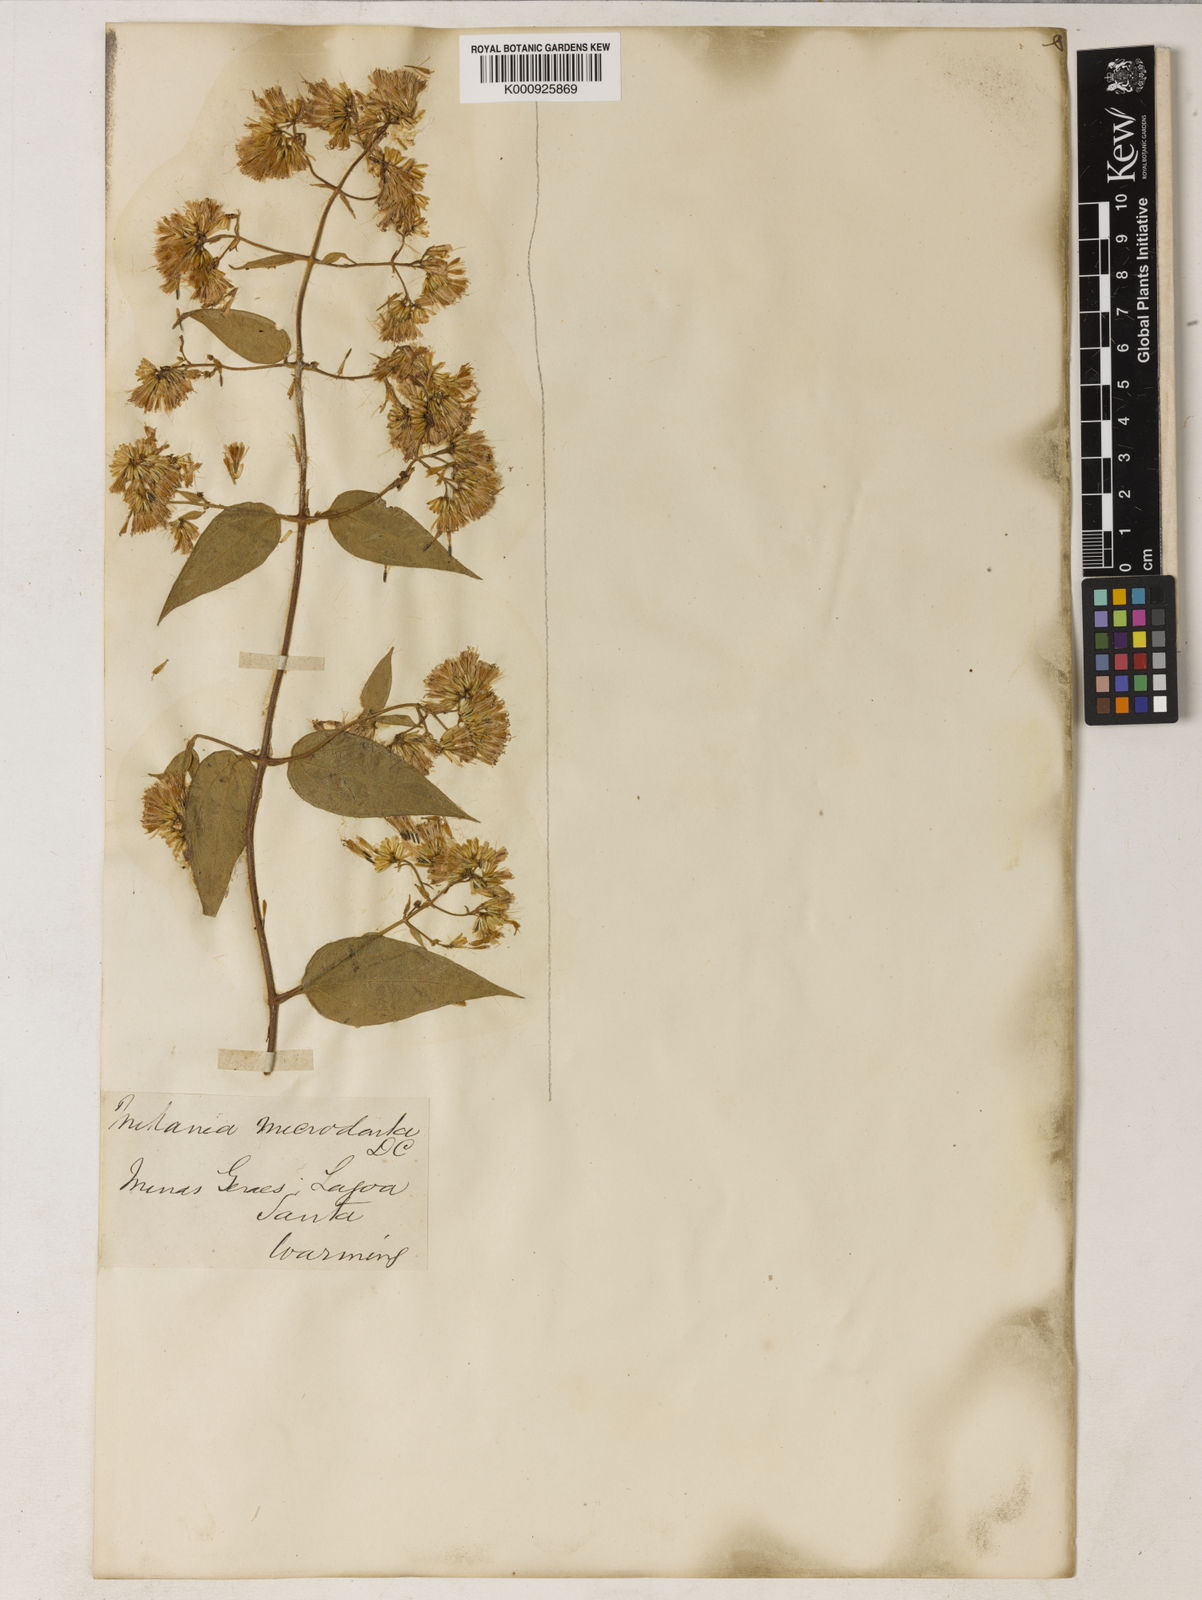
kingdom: Plantae
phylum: Tracheophyta
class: Magnoliopsida
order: Asterales
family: Asteraceae
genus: Mikania
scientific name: Mikania microdonta
